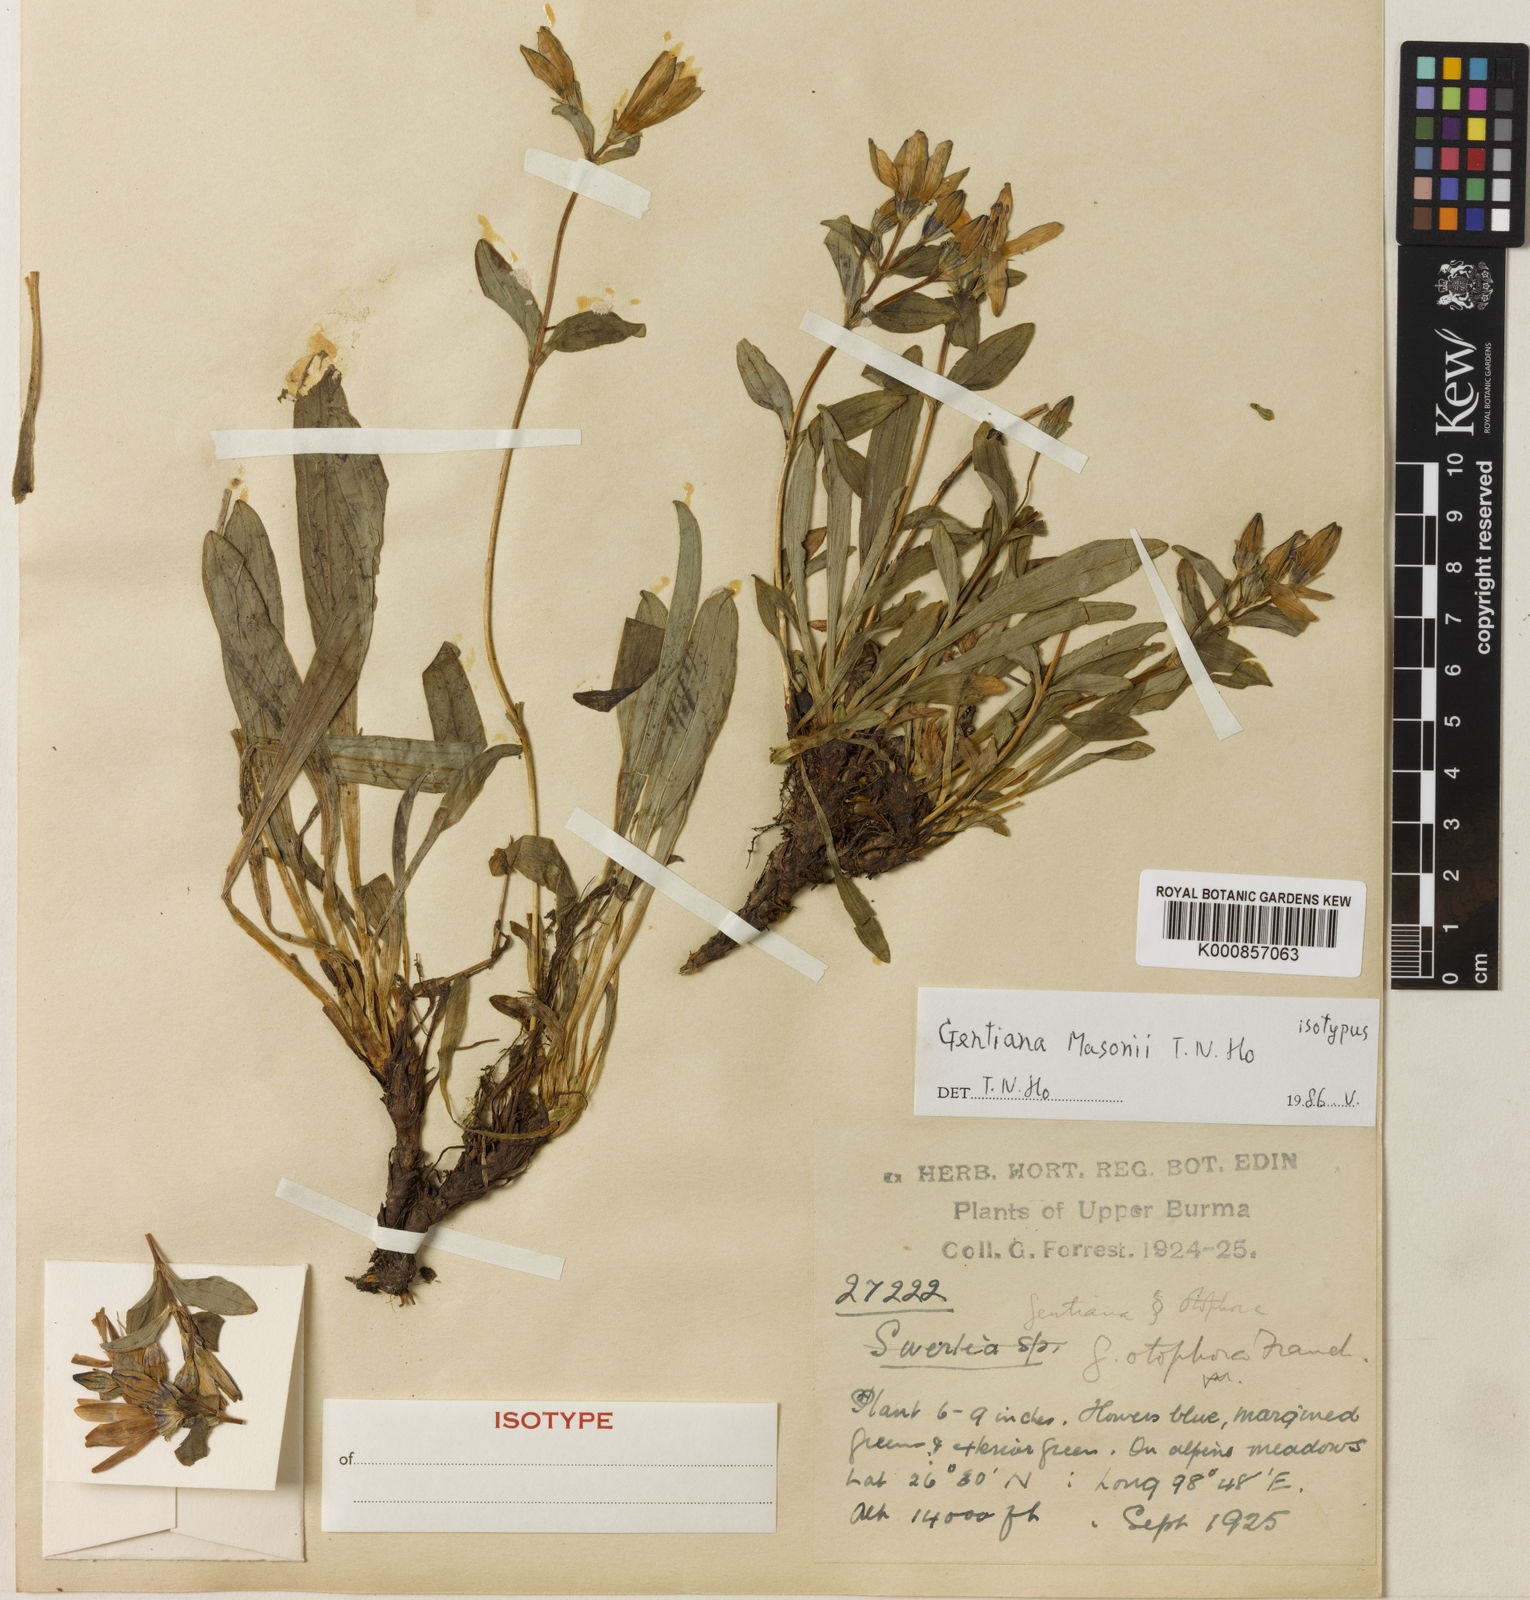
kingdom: Plantae
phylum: Tracheophyta
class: Magnoliopsida
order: Gentianales
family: Gentianaceae
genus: Kuepferia
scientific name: Kuepferia masonii
